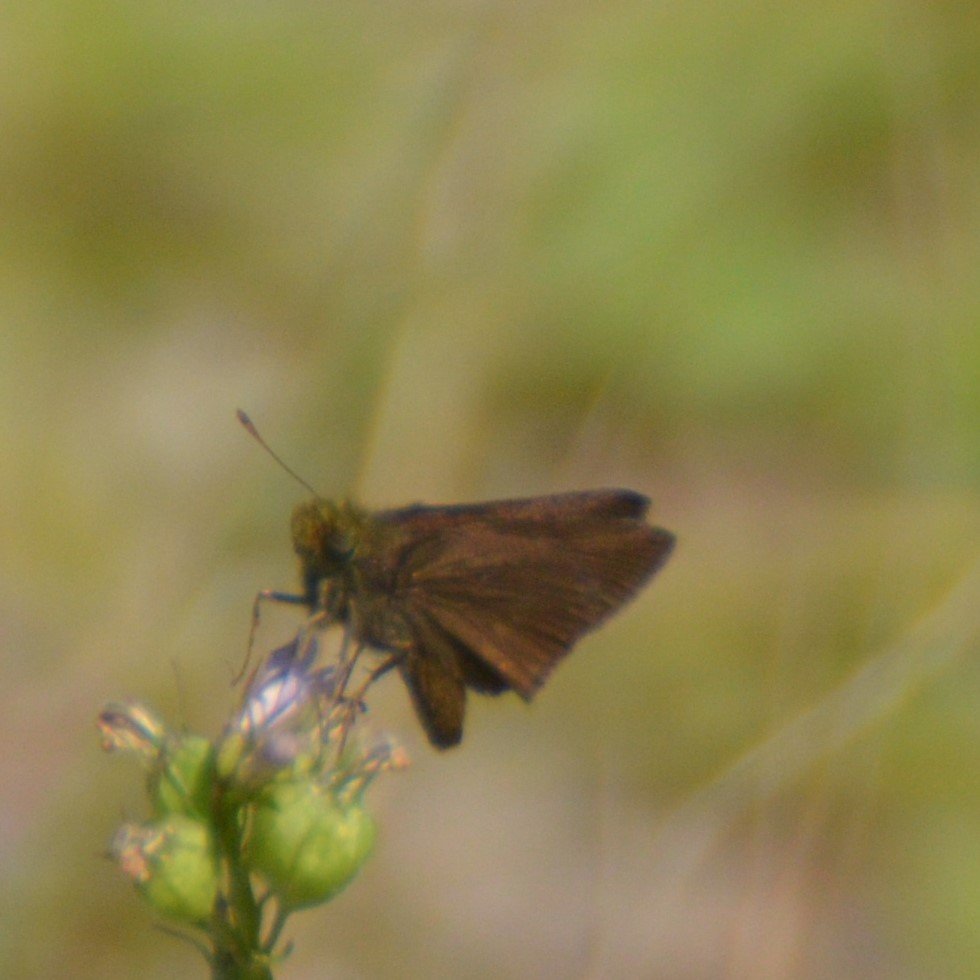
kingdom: Animalia
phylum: Arthropoda
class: Insecta
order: Lepidoptera
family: Hesperiidae
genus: Euphyes
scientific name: Euphyes vestris
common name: Dun Skipper
